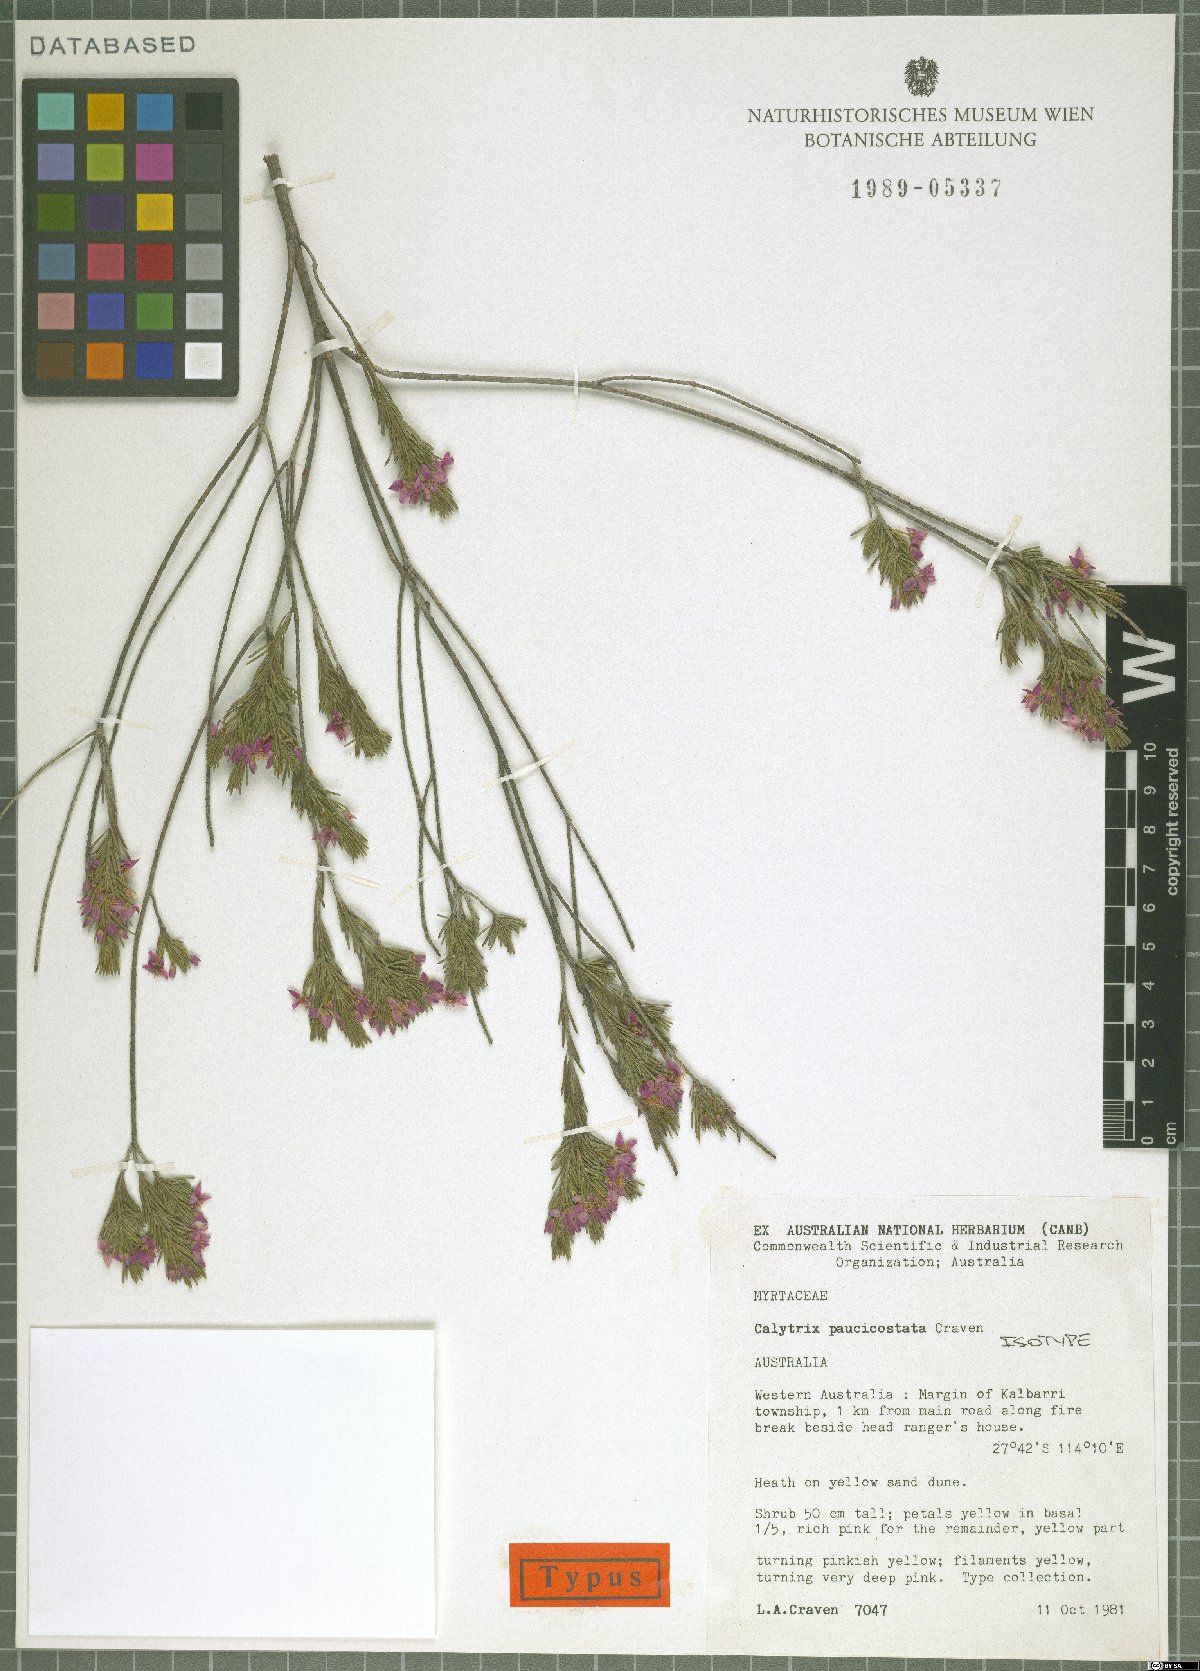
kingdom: Plantae
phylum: Tracheophyta
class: Magnoliopsida
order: Myrtales
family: Myrtaceae
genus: Calytrix
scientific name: Calytrix paucicostata
